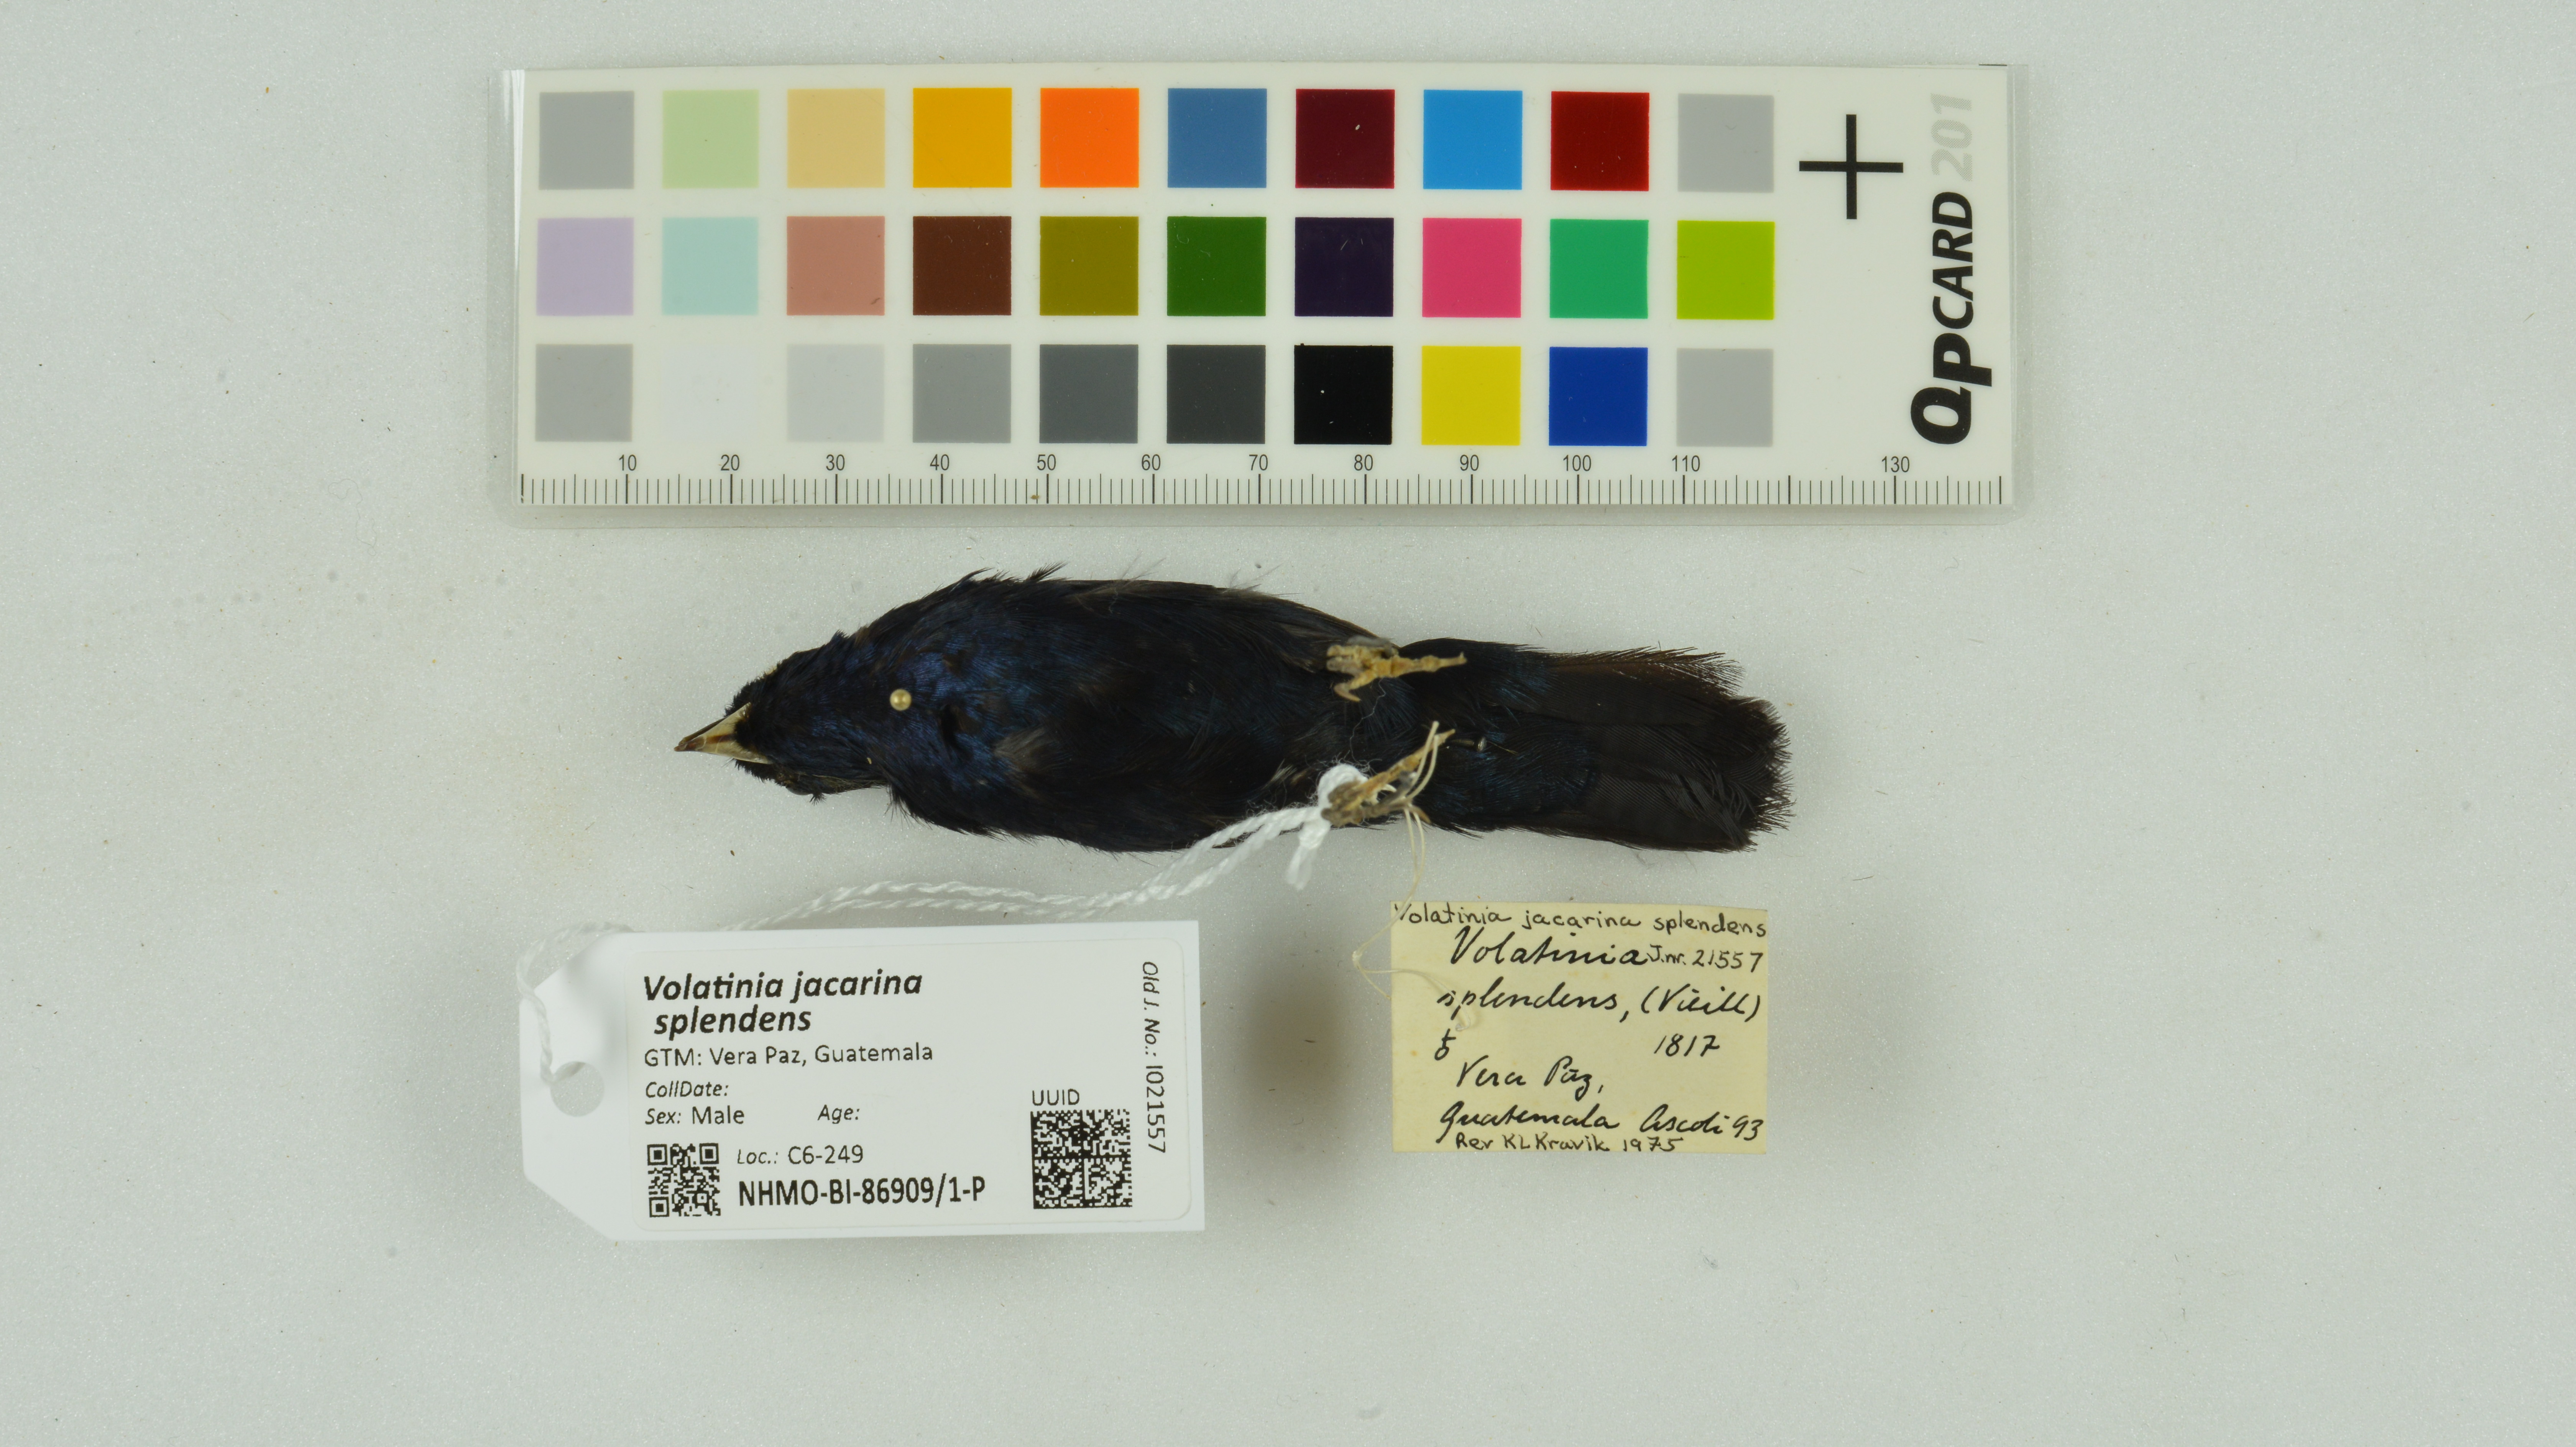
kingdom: Animalia
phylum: Chordata
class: Aves
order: Passeriformes
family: Thraupidae
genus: Volatinia
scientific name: Volatinia jacarina
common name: Blue-black grassquit
